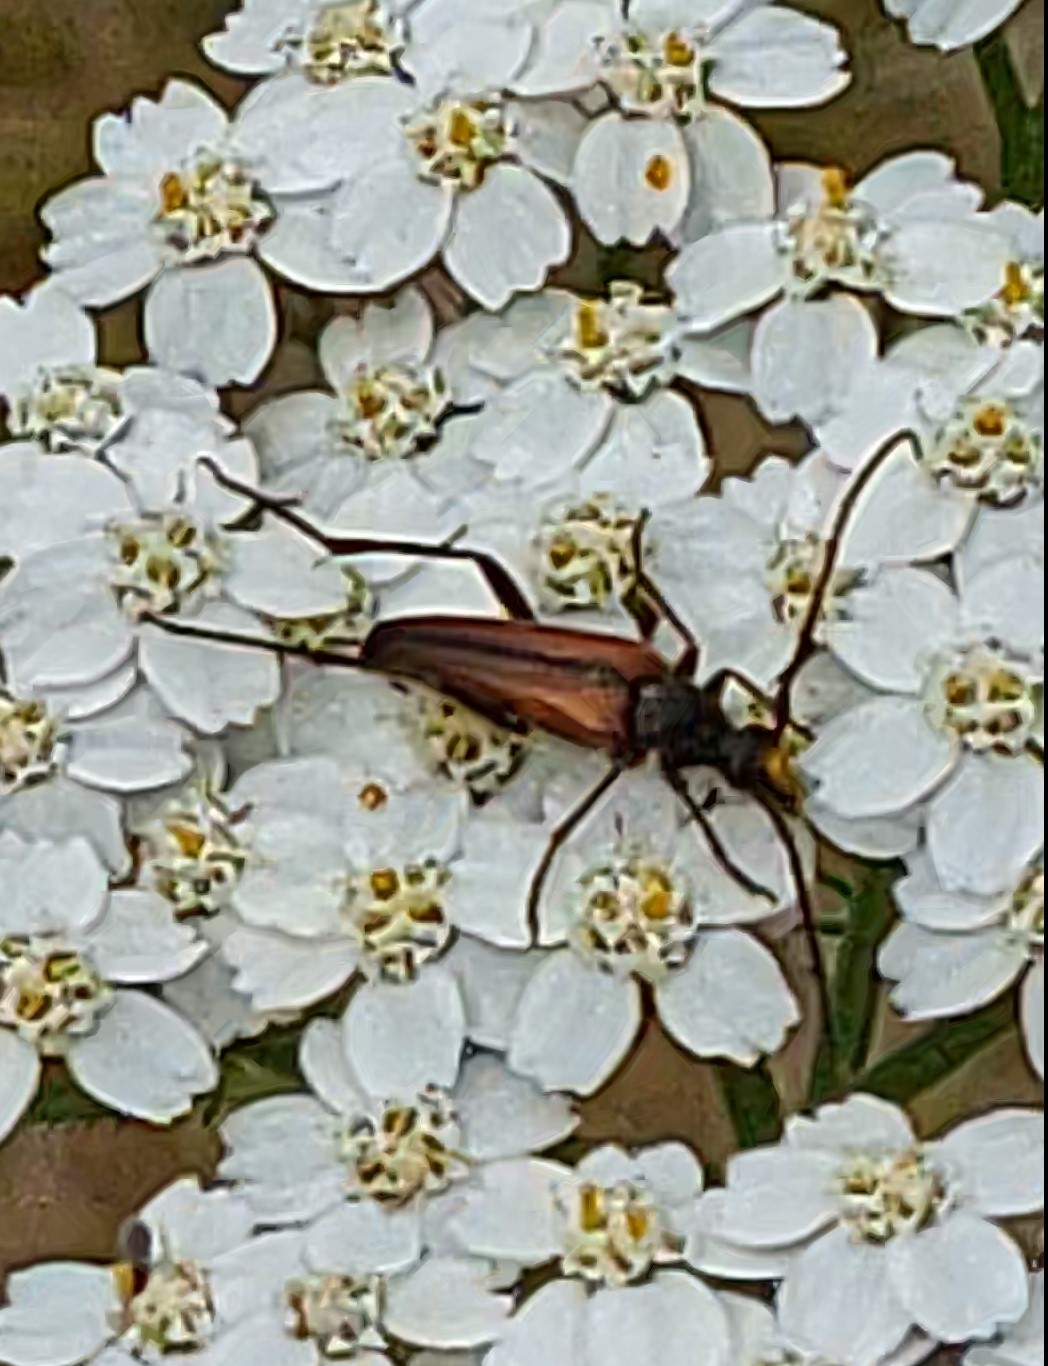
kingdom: Animalia
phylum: Arthropoda
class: Insecta
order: Coleoptera
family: Cerambycidae
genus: Stenurella
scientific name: Stenurella melanura
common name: Sortsømmet blomsterbuk
